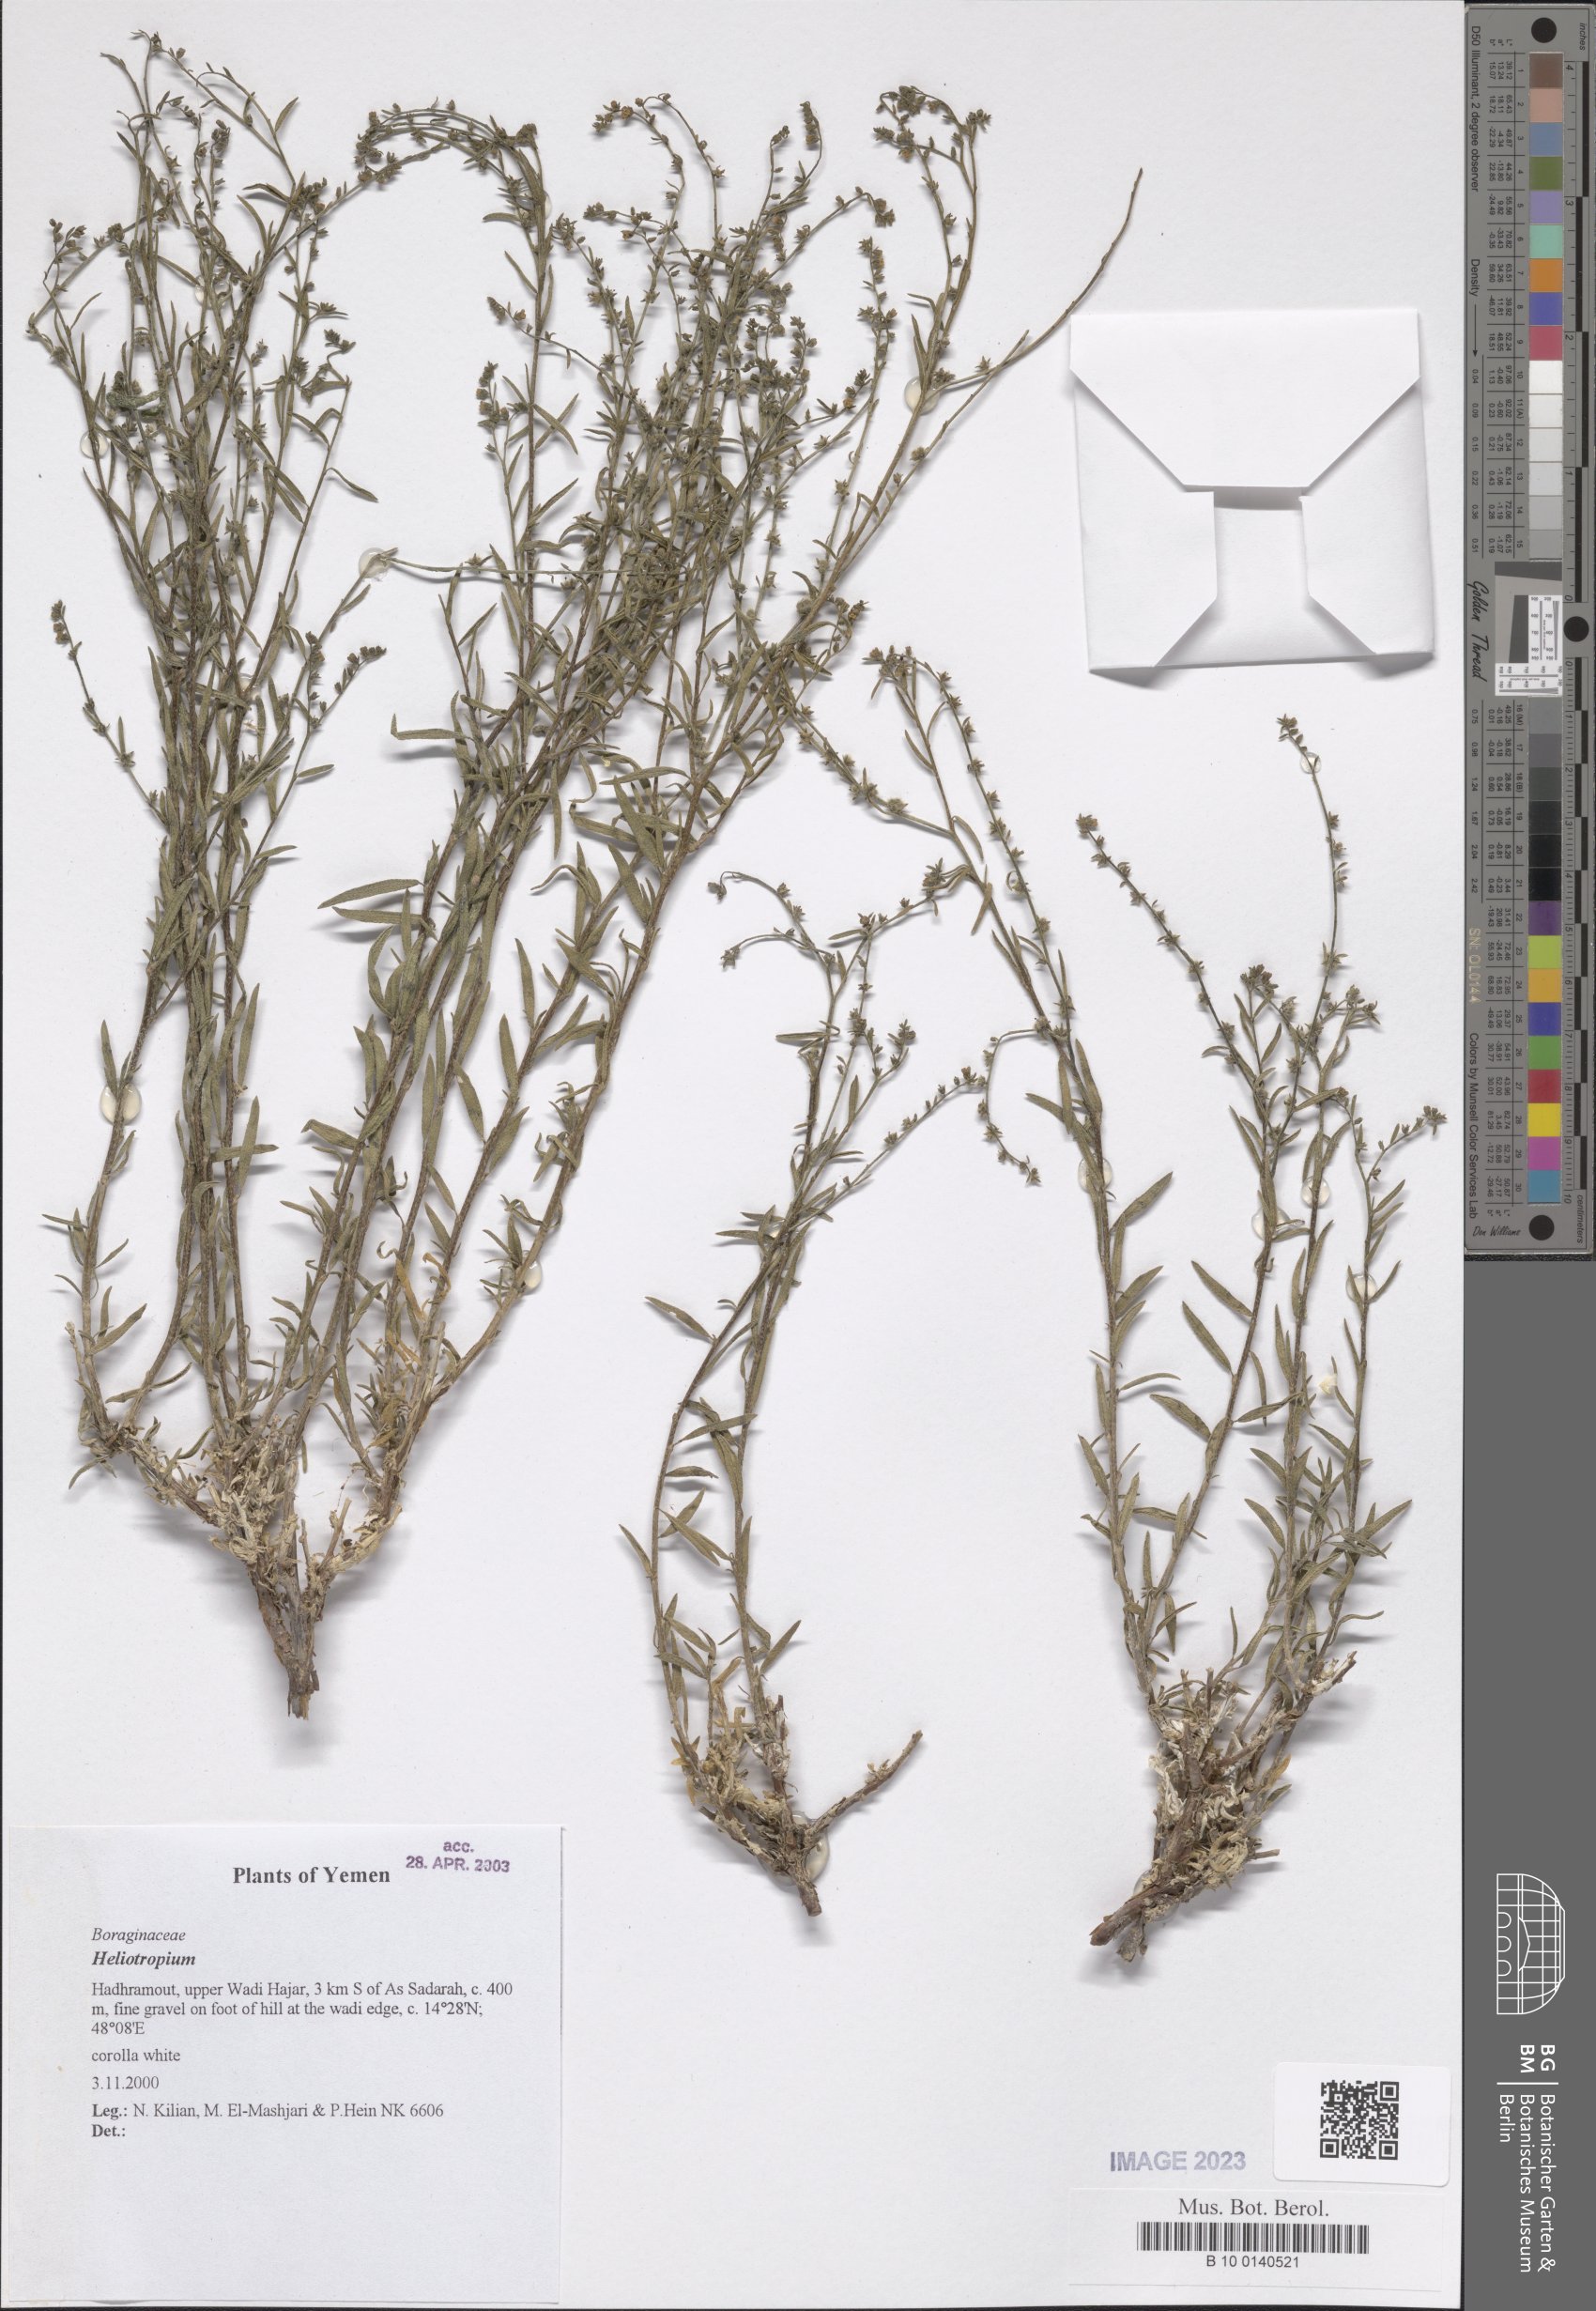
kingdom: Plantae
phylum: Tracheophyta
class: Magnoliopsida
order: Boraginales
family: Heliotropiaceae
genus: Heliotropium
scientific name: Heliotropium
